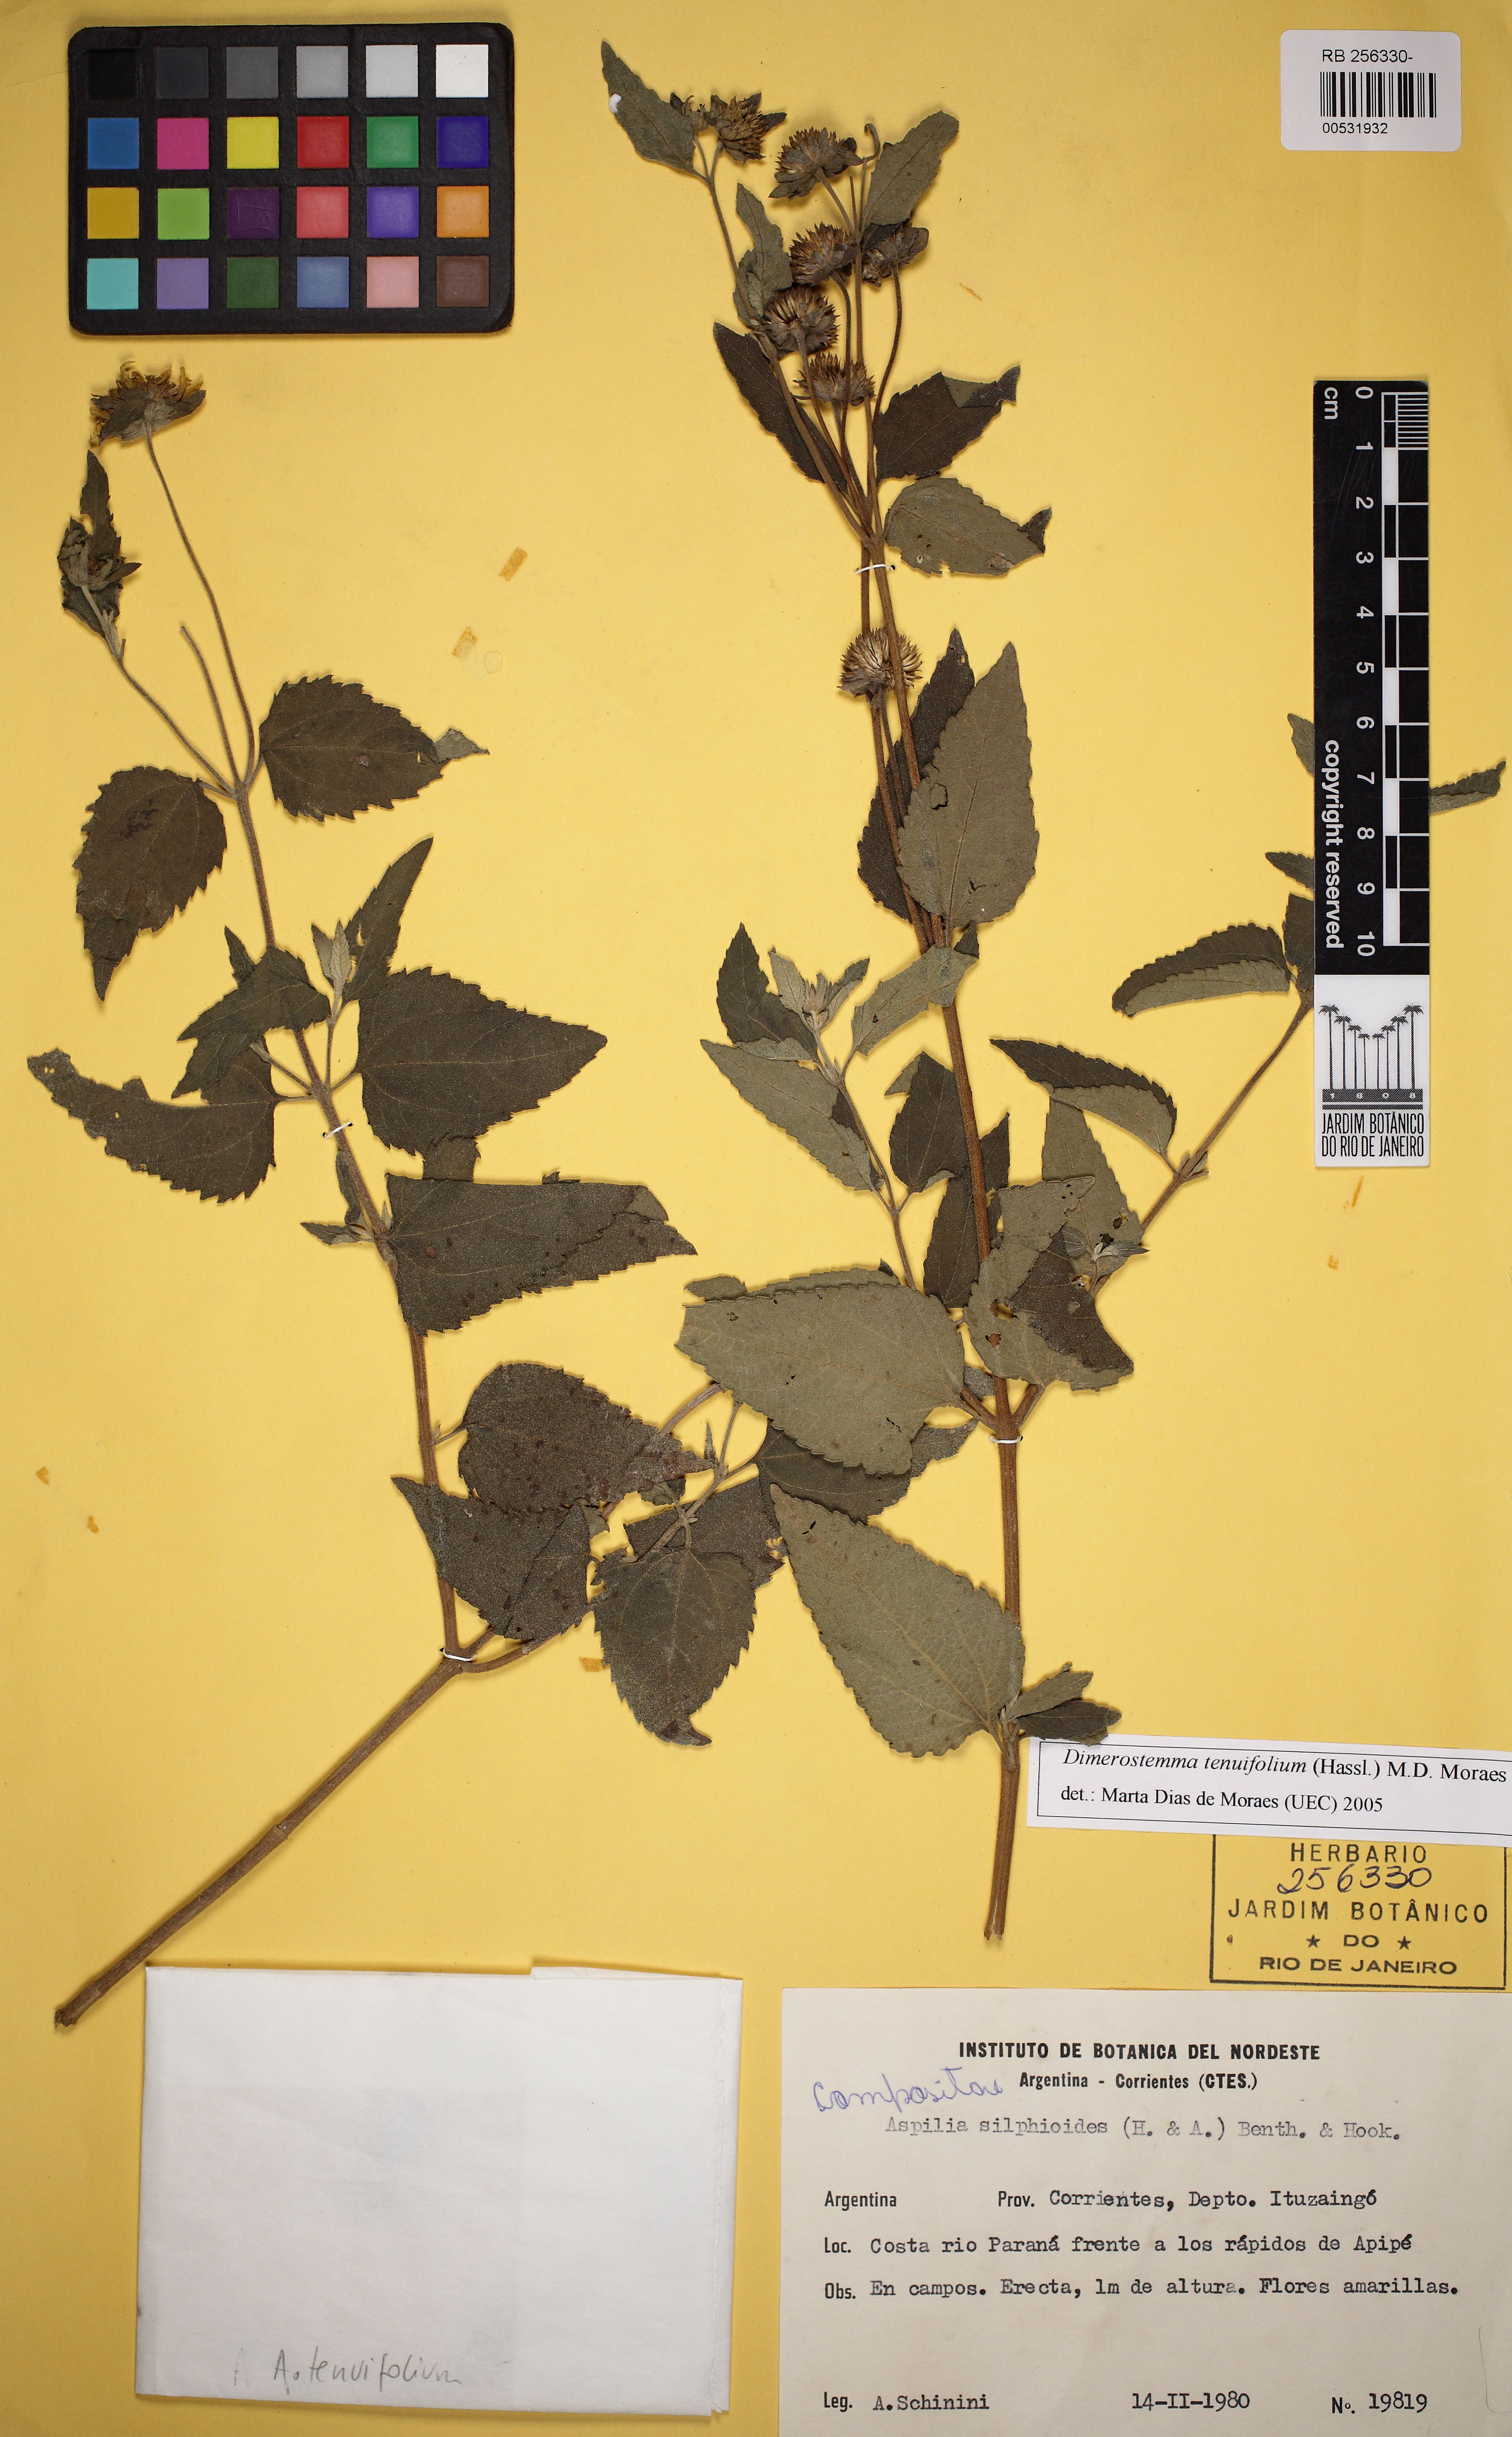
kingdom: Plantae
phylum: Tracheophyta
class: Magnoliopsida
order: Asterales
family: Asteraceae
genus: Dimerostemma
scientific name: Dimerostemma tenuifolium
